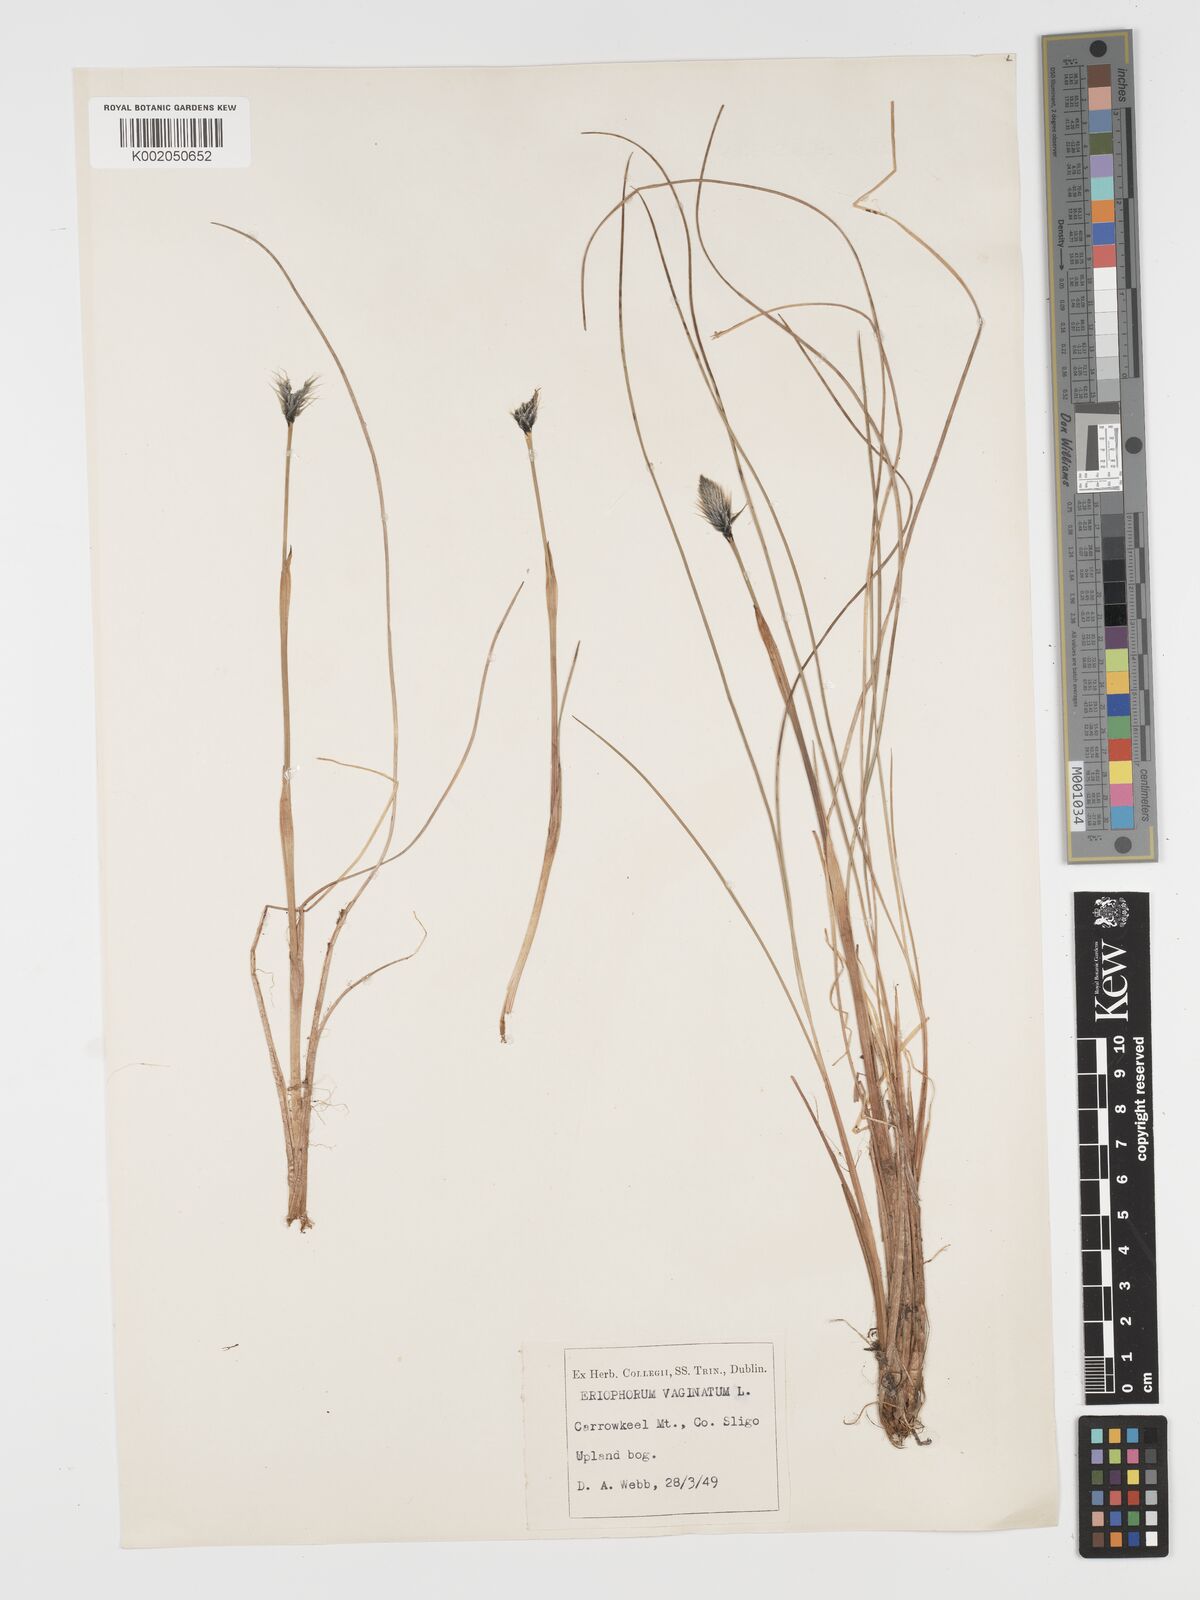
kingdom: Plantae
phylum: Tracheophyta
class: Liliopsida
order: Poales
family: Cyperaceae
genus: Eriophorum
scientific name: Eriophorum vaginatum
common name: Hare's-tail cottongrass
